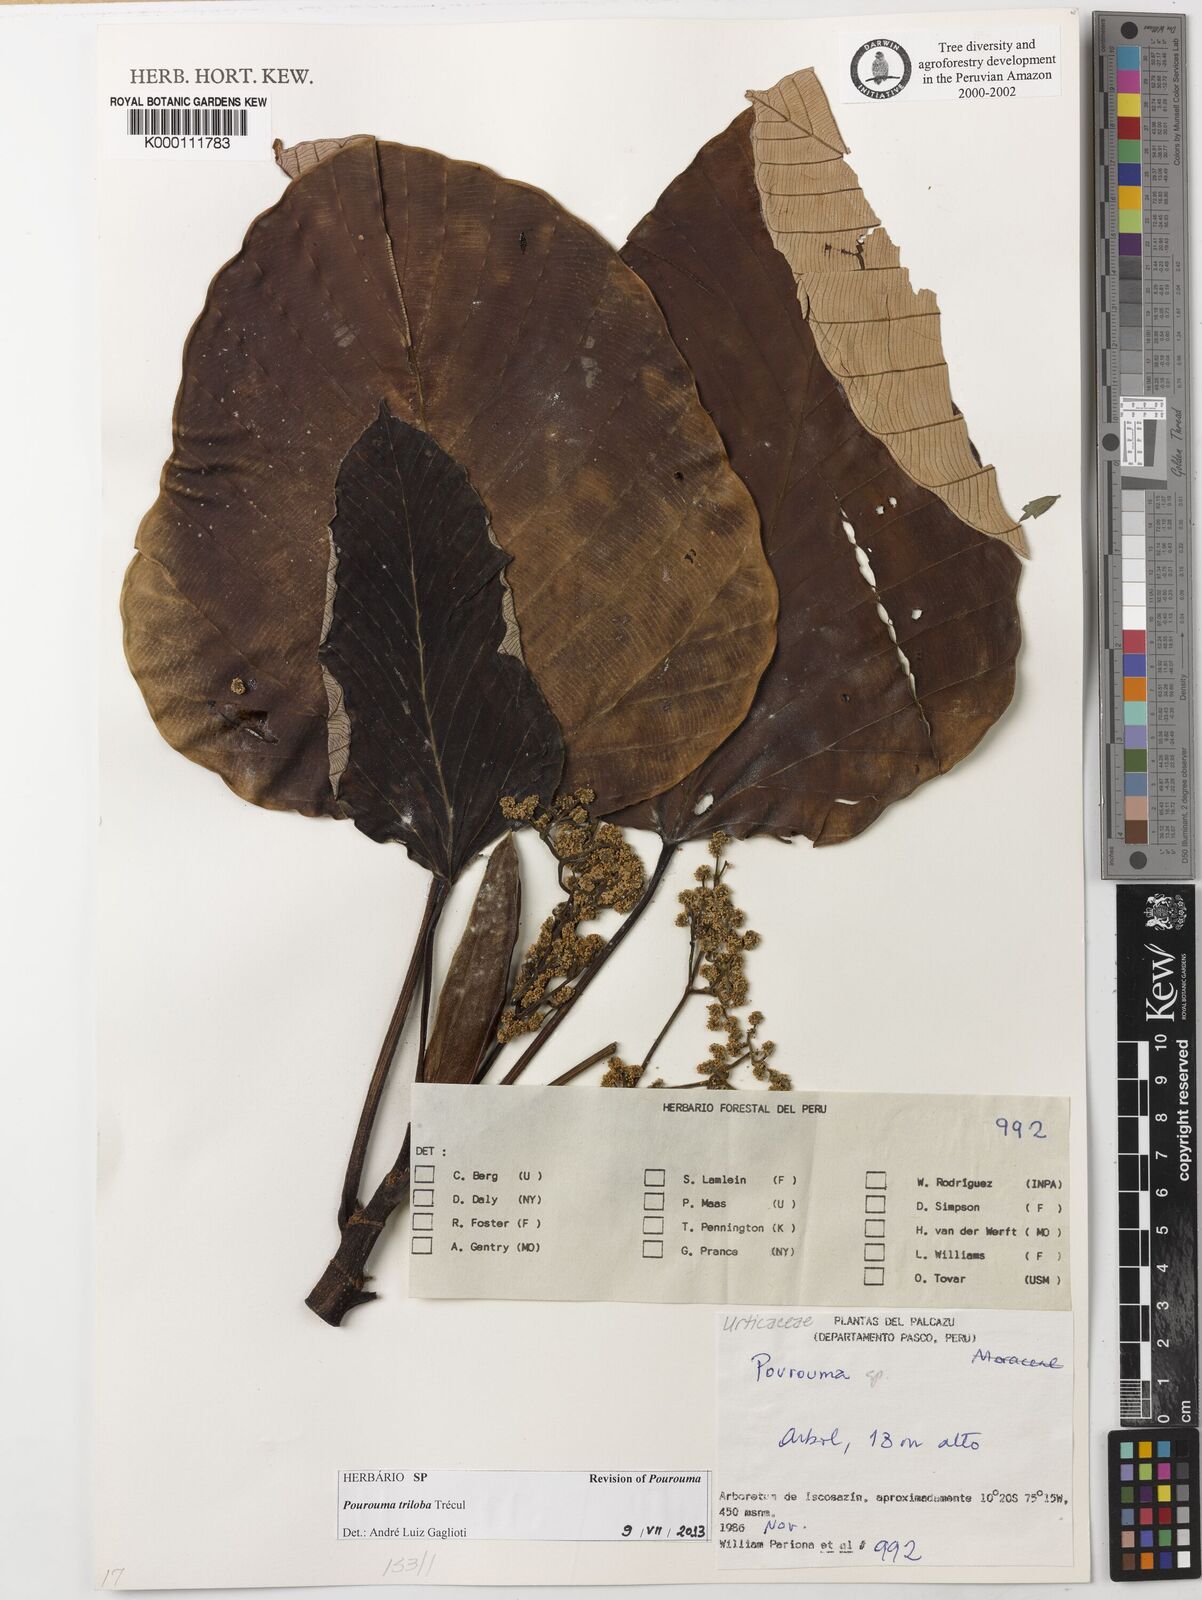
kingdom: Plantae
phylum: Tracheophyta
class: Magnoliopsida
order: Rosales
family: Urticaceae
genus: Pourouma
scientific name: Pourouma
